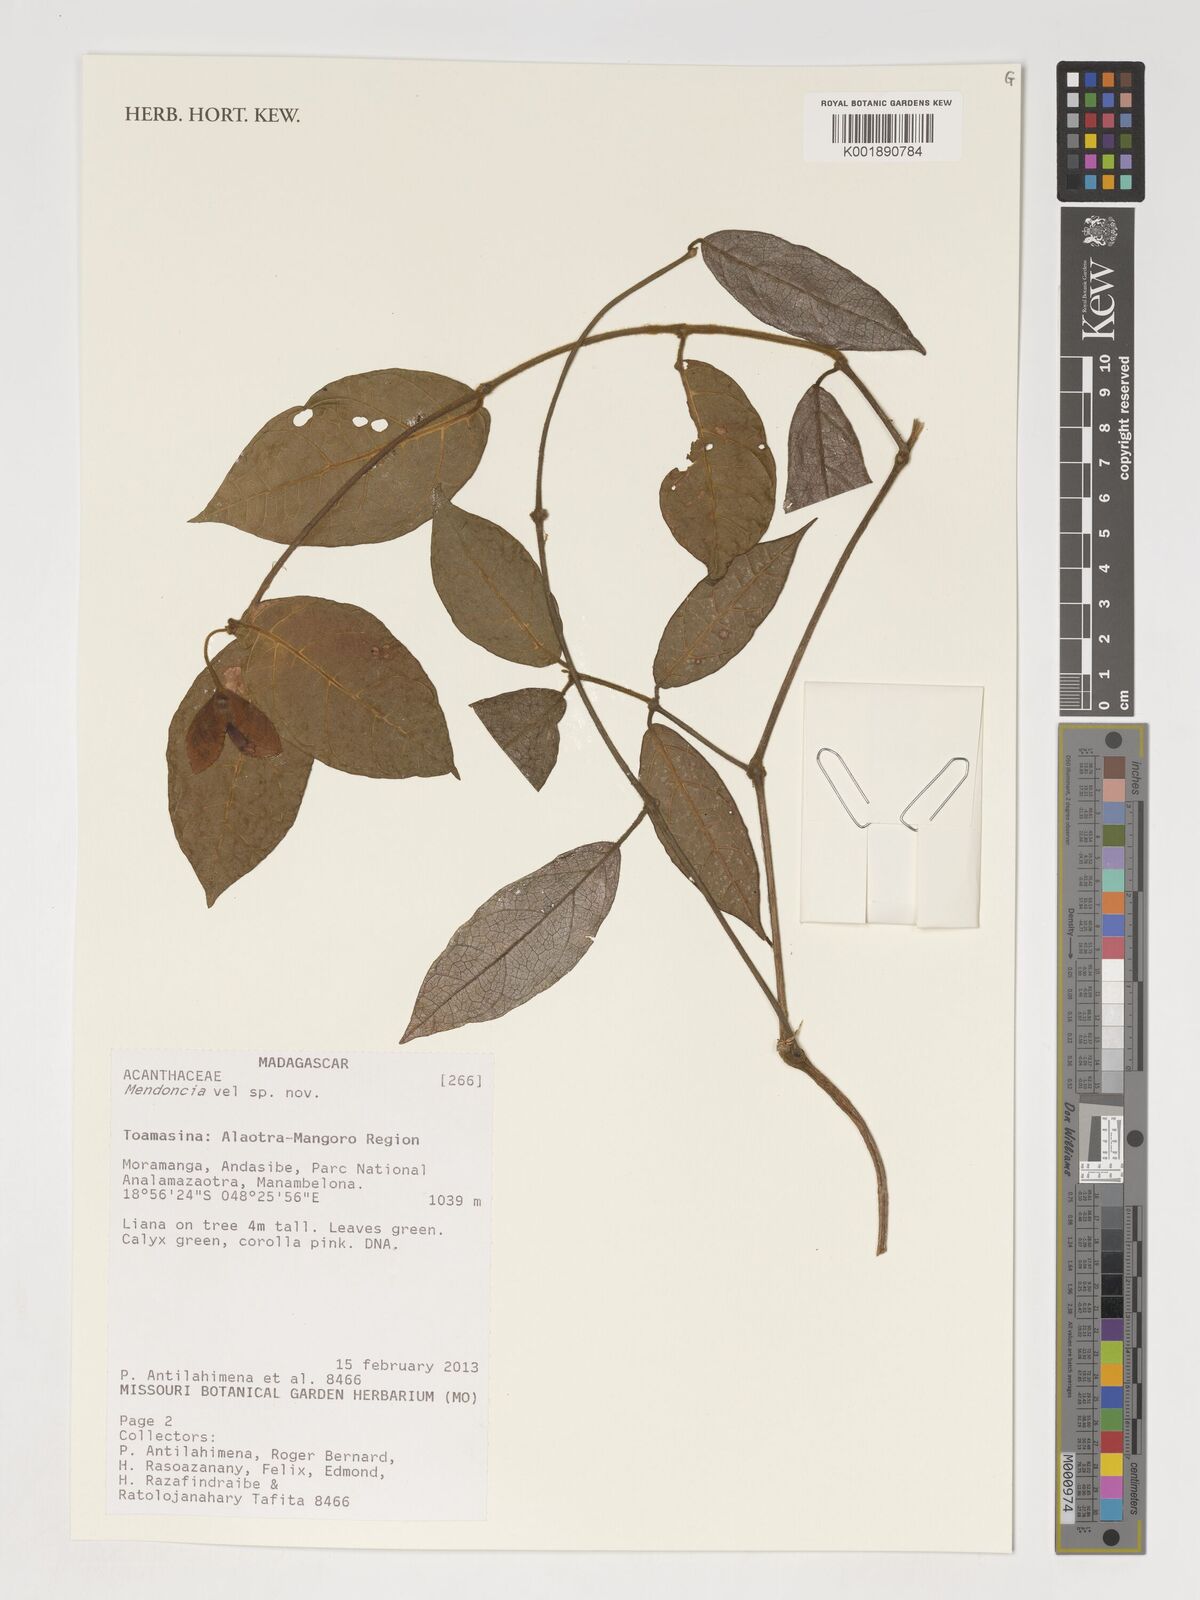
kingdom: Plantae
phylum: Tracheophyta
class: Magnoliopsida
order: Lamiales
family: Acanthaceae
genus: Mendoncia
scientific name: Mendoncia
